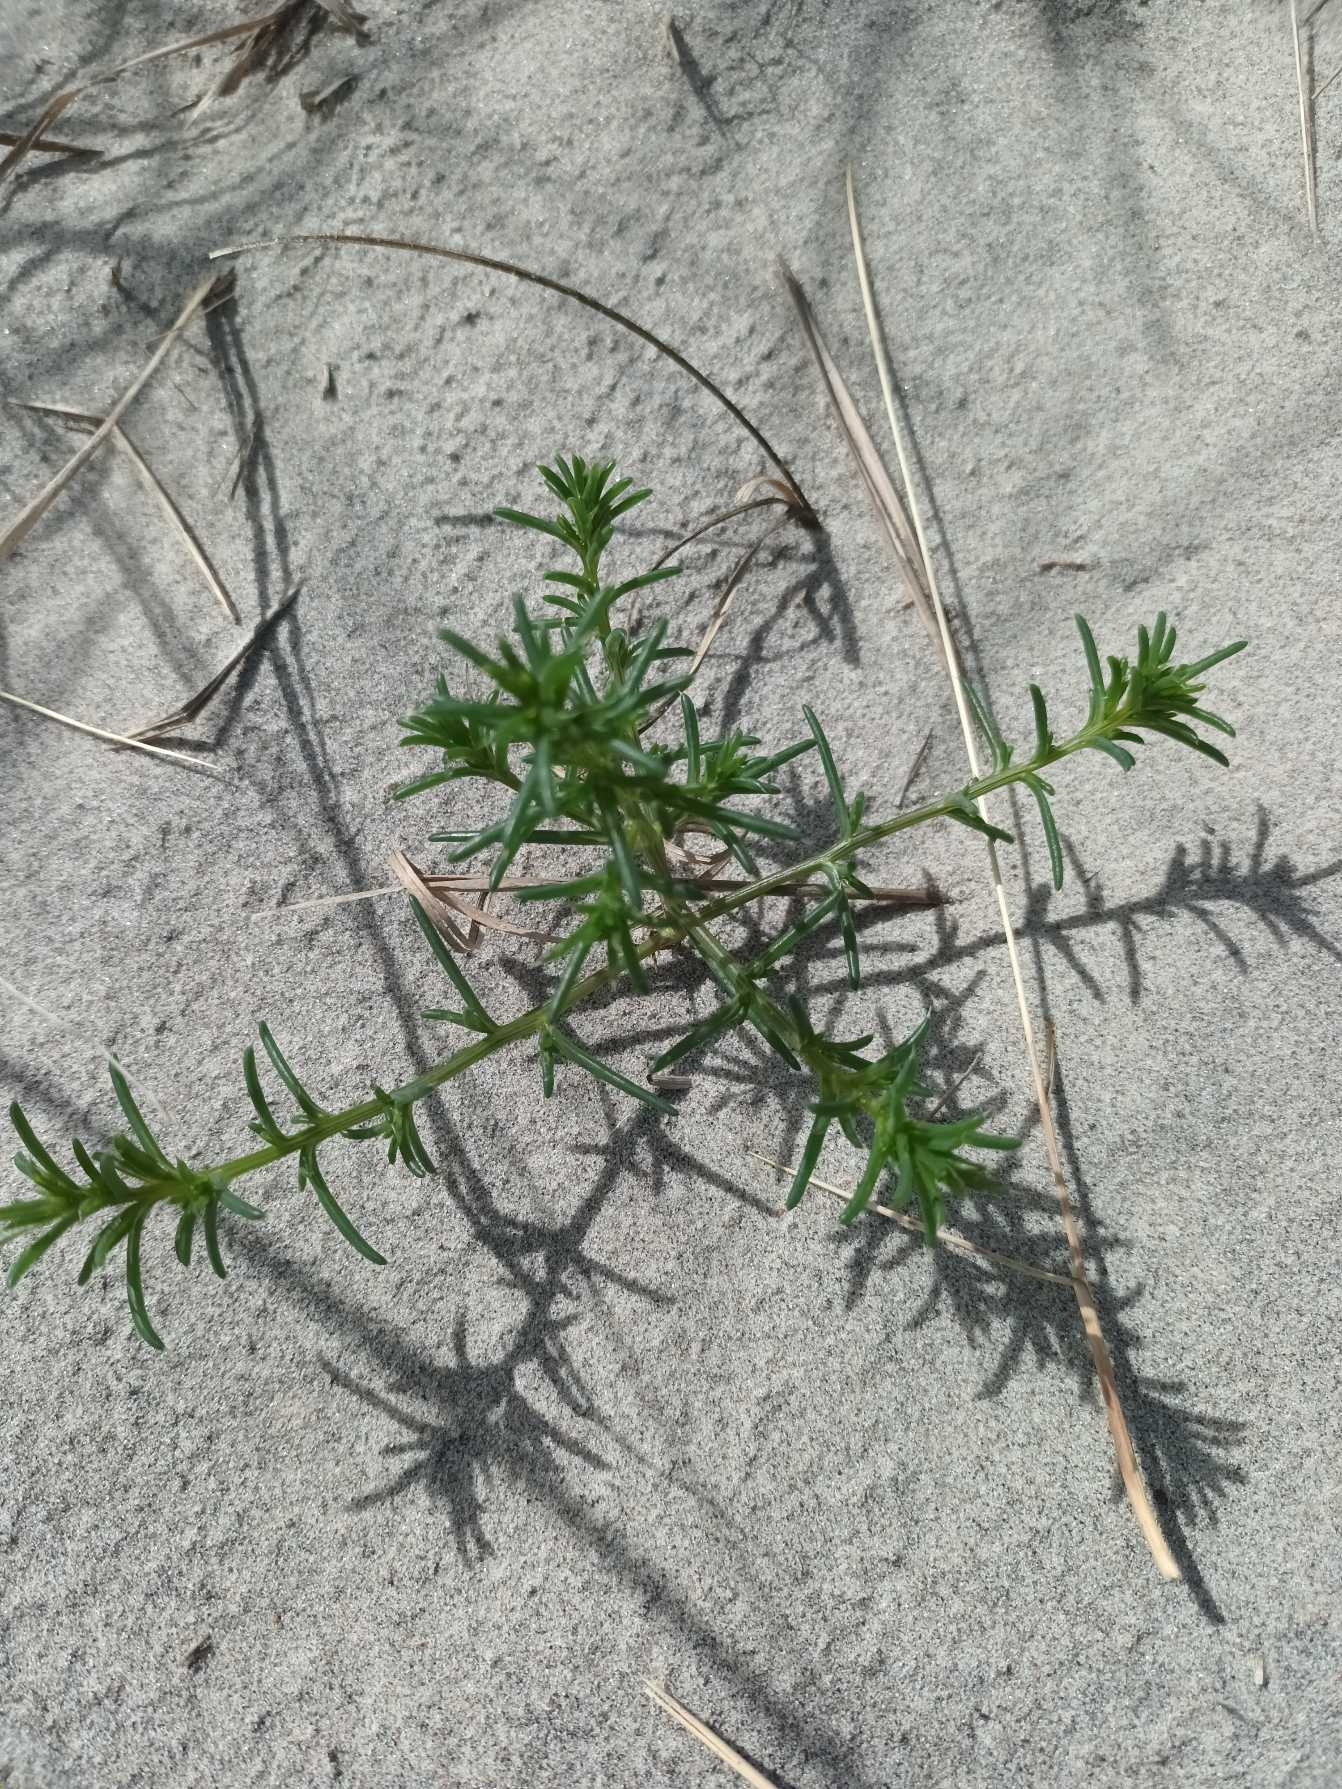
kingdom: Plantae
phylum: Tracheophyta
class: Magnoliopsida
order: Caryophyllales
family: Amaranthaceae
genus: Salsola
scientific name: Salsola kali
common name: Sodaurt
